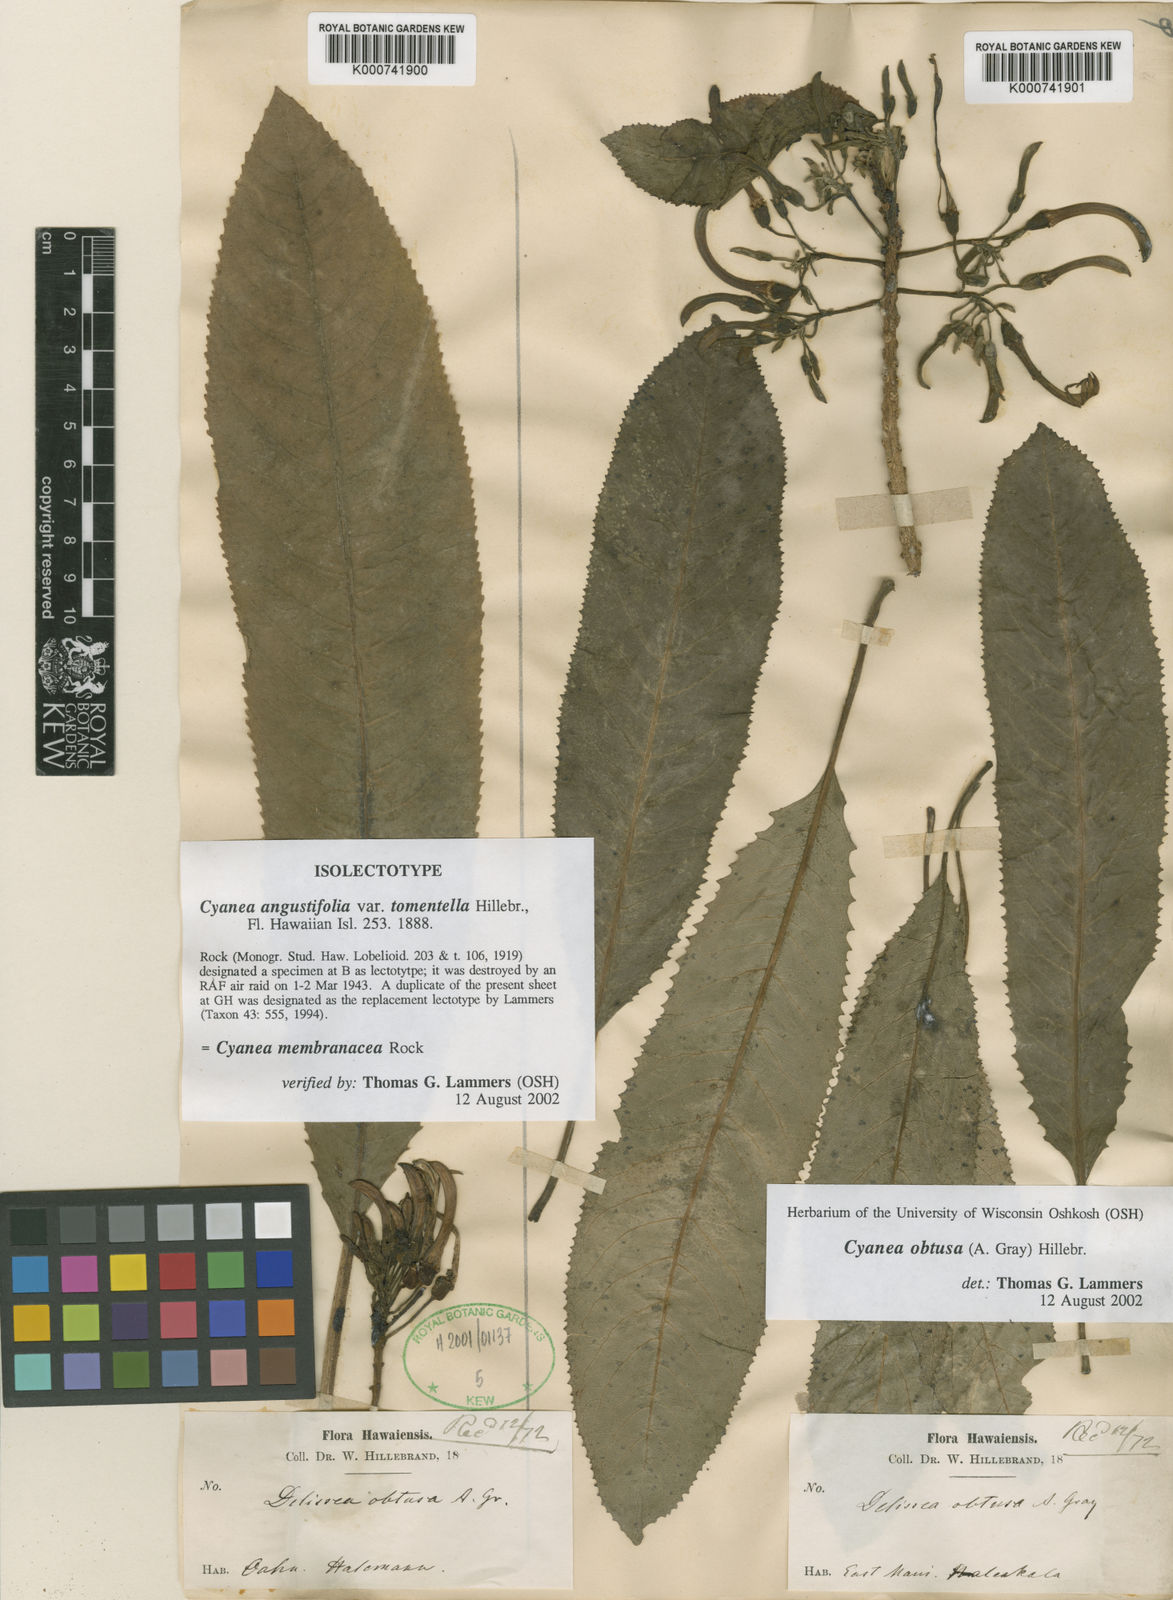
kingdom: Plantae
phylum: Tracheophyta
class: Magnoliopsida
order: Asterales
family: Campanulaceae
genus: Cyanea
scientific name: Cyanea angustifolia
